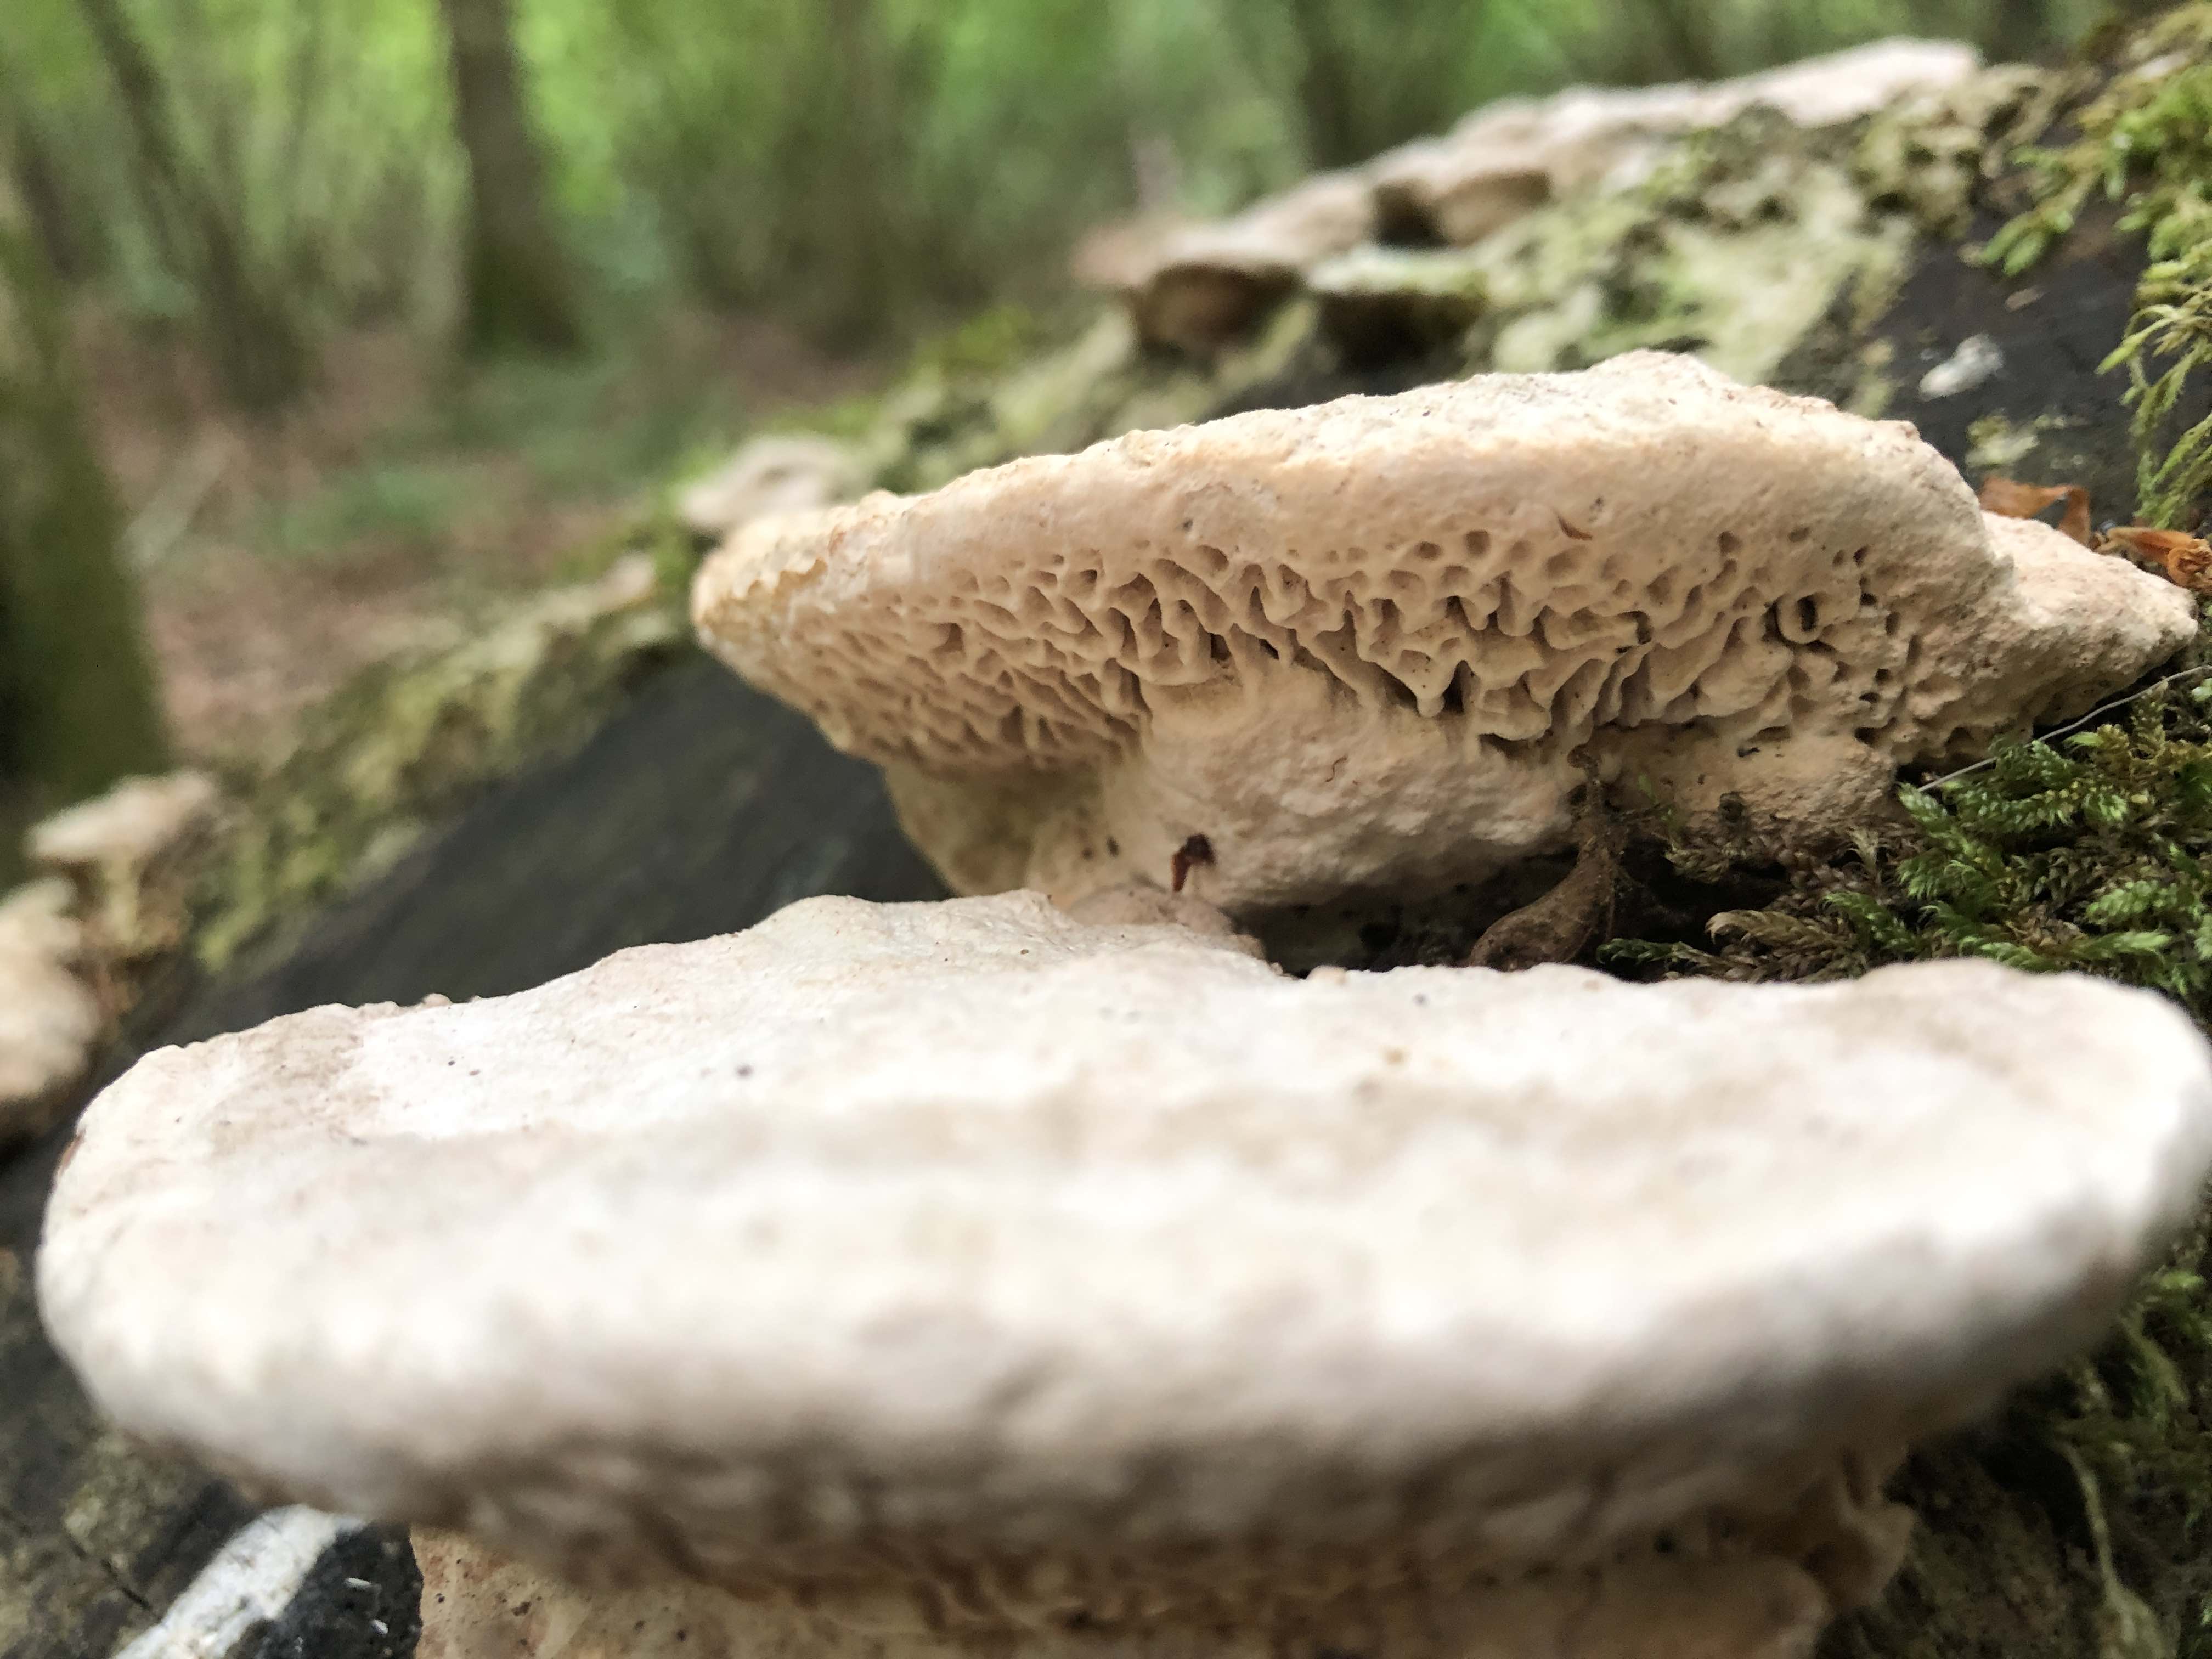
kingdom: Fungi
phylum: Basidiomycota
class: Agaricomycetes
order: Polyporales
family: Fomitopsidaceae
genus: Daedalea
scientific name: Daedalea quercina
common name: ege-labyrintsvamp
